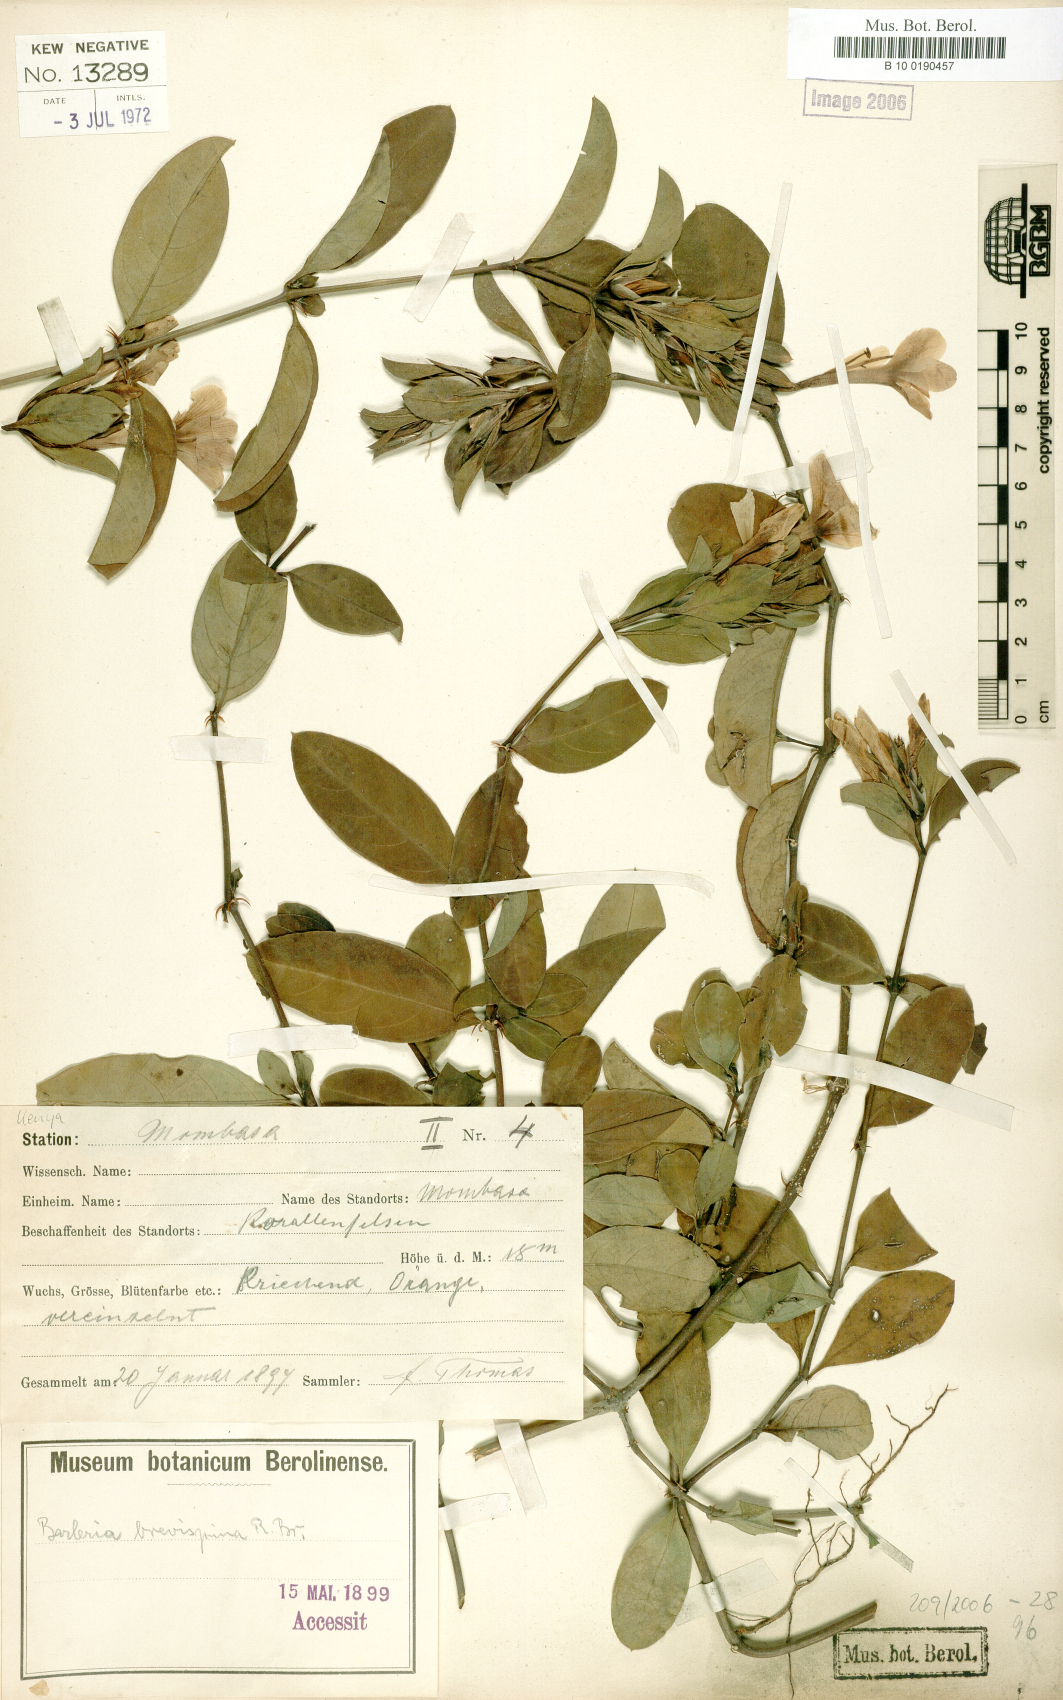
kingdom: Plantae
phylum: Tracheophyta
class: Magnoliopsida
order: Lamiales
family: Acanthaceae
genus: Barleria
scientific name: Barleria quadrispina
